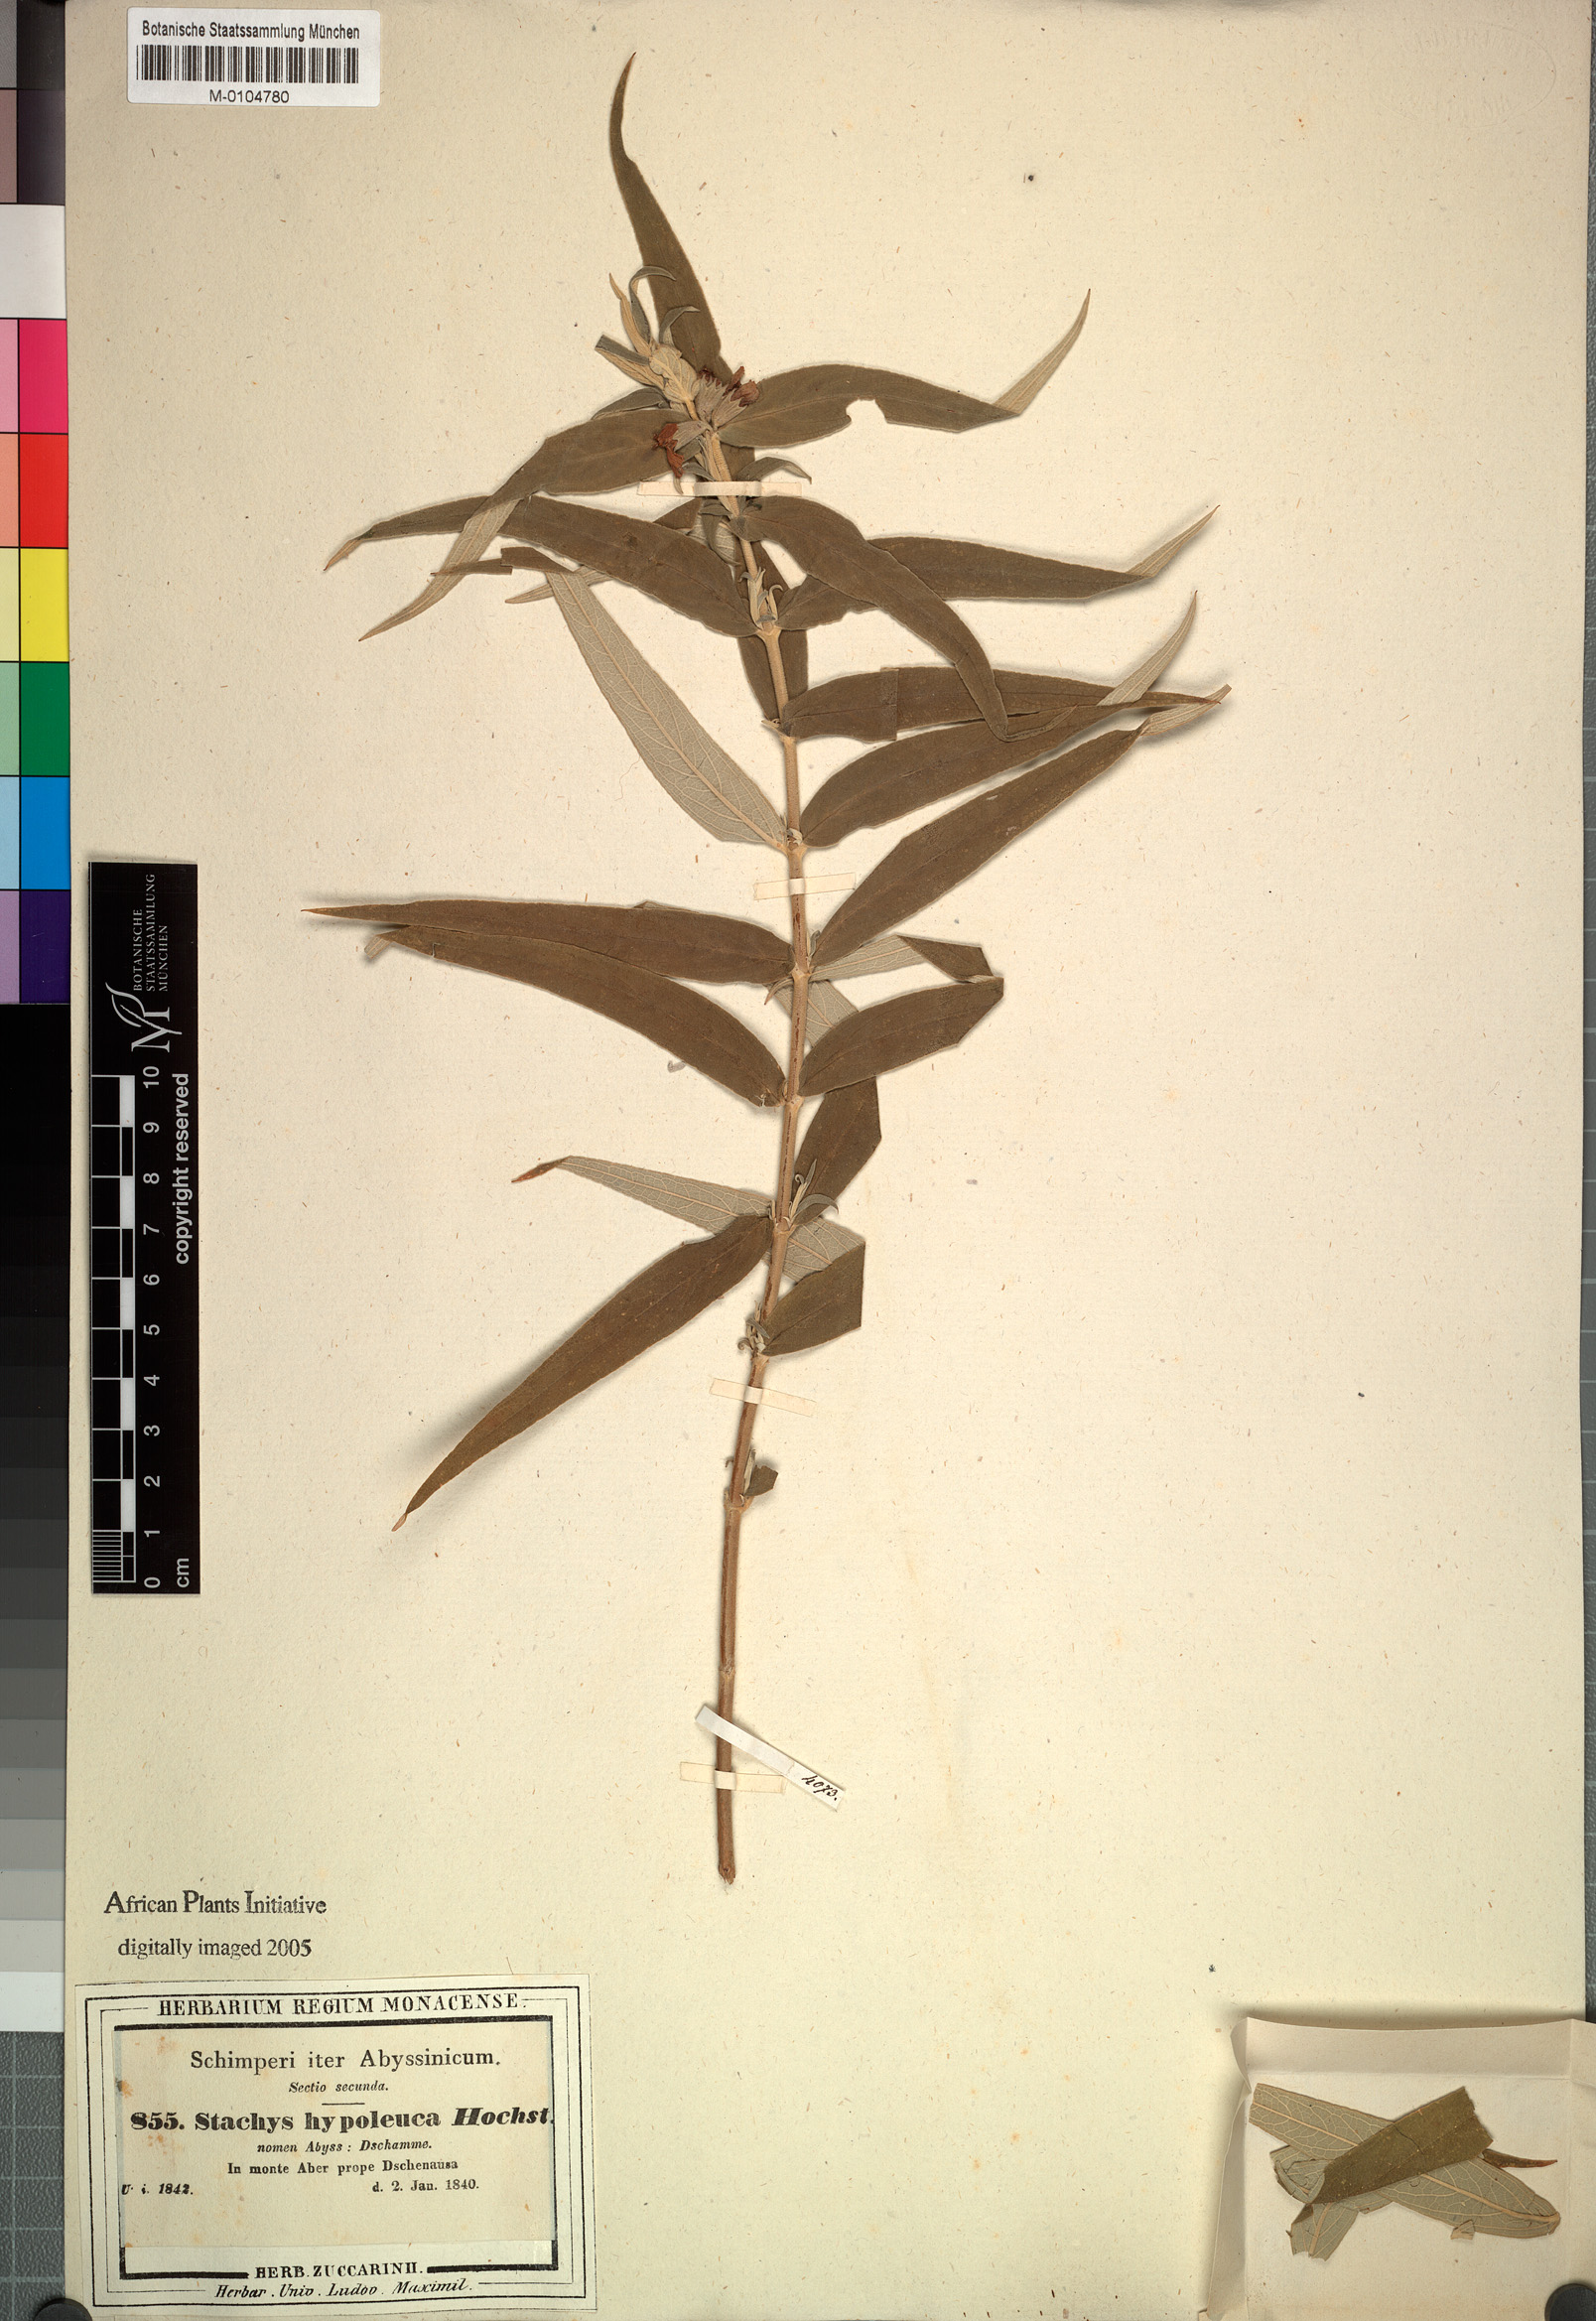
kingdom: Plantae
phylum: Tracheophyta
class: Magnoliopsida
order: Lamiales
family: Lamiaceae
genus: Stachys
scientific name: Stachys hypoleuca
